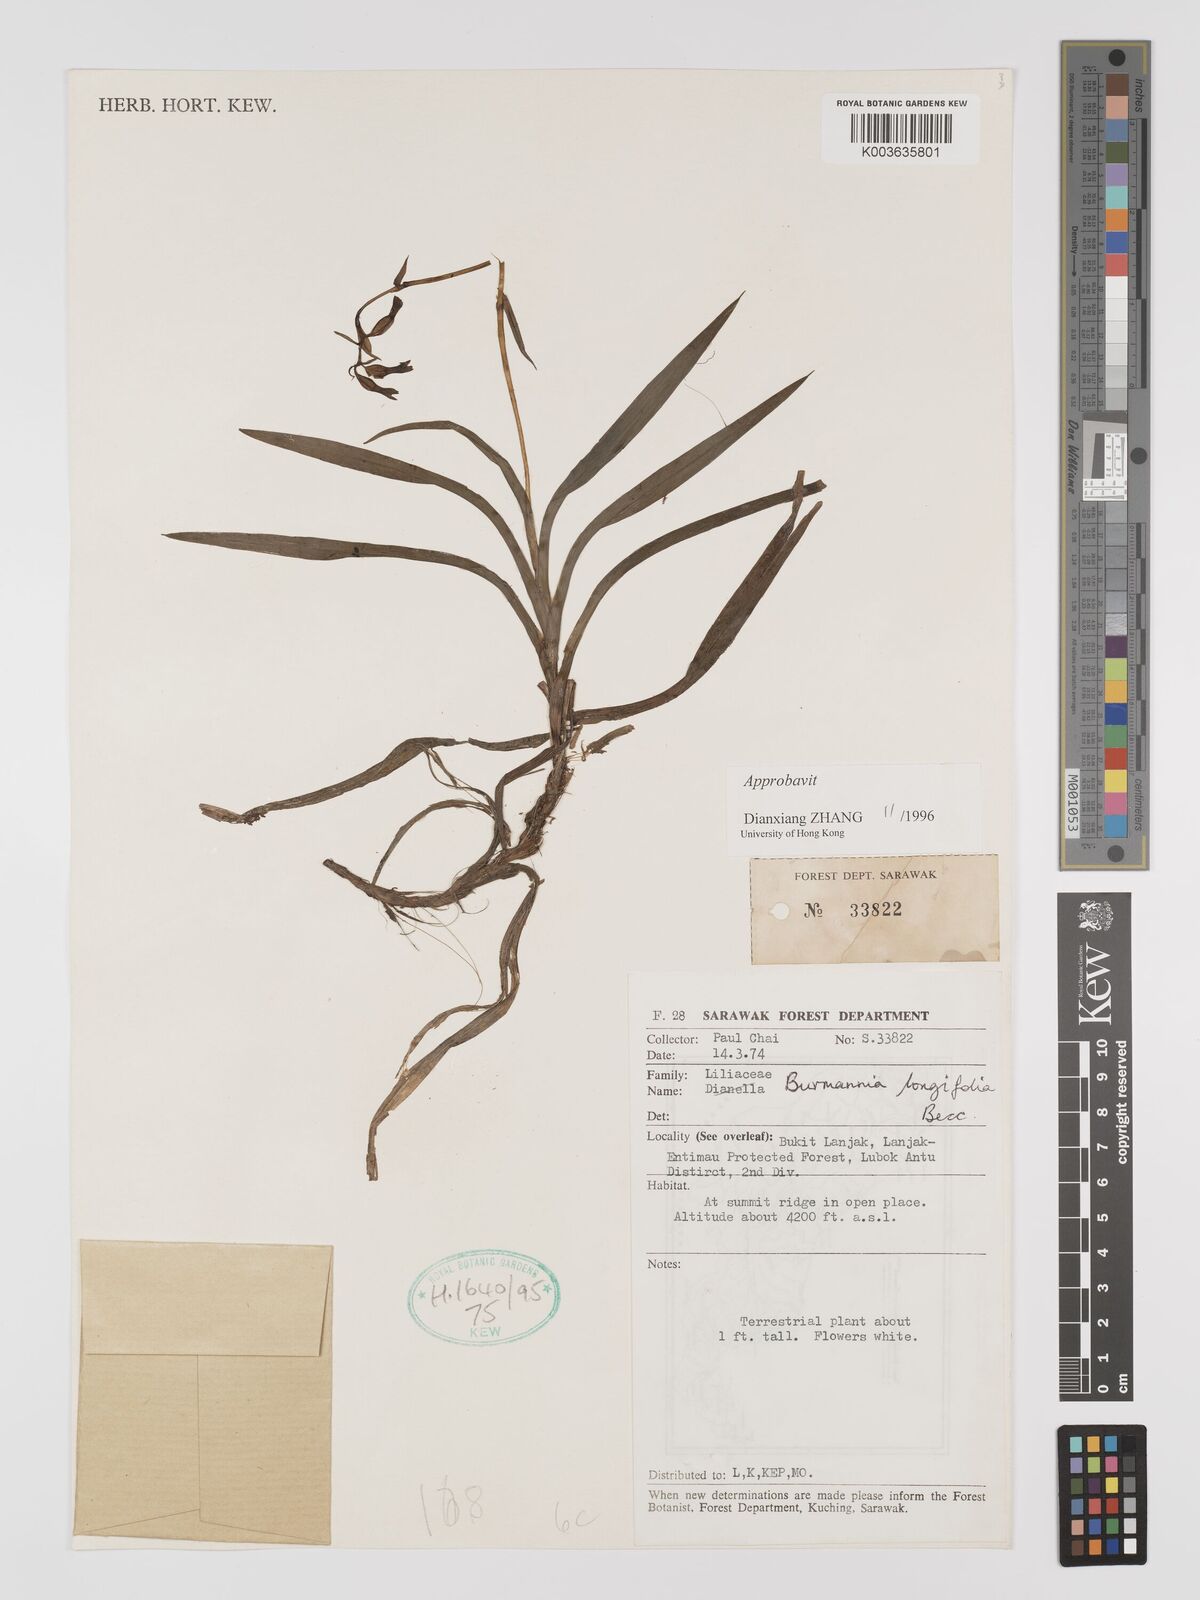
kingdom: Plantae
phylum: Tracheophyta
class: Liliopsida
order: Dioscoreales
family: Burmanniaceae
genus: Burmannia
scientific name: Burmannia longifolia
